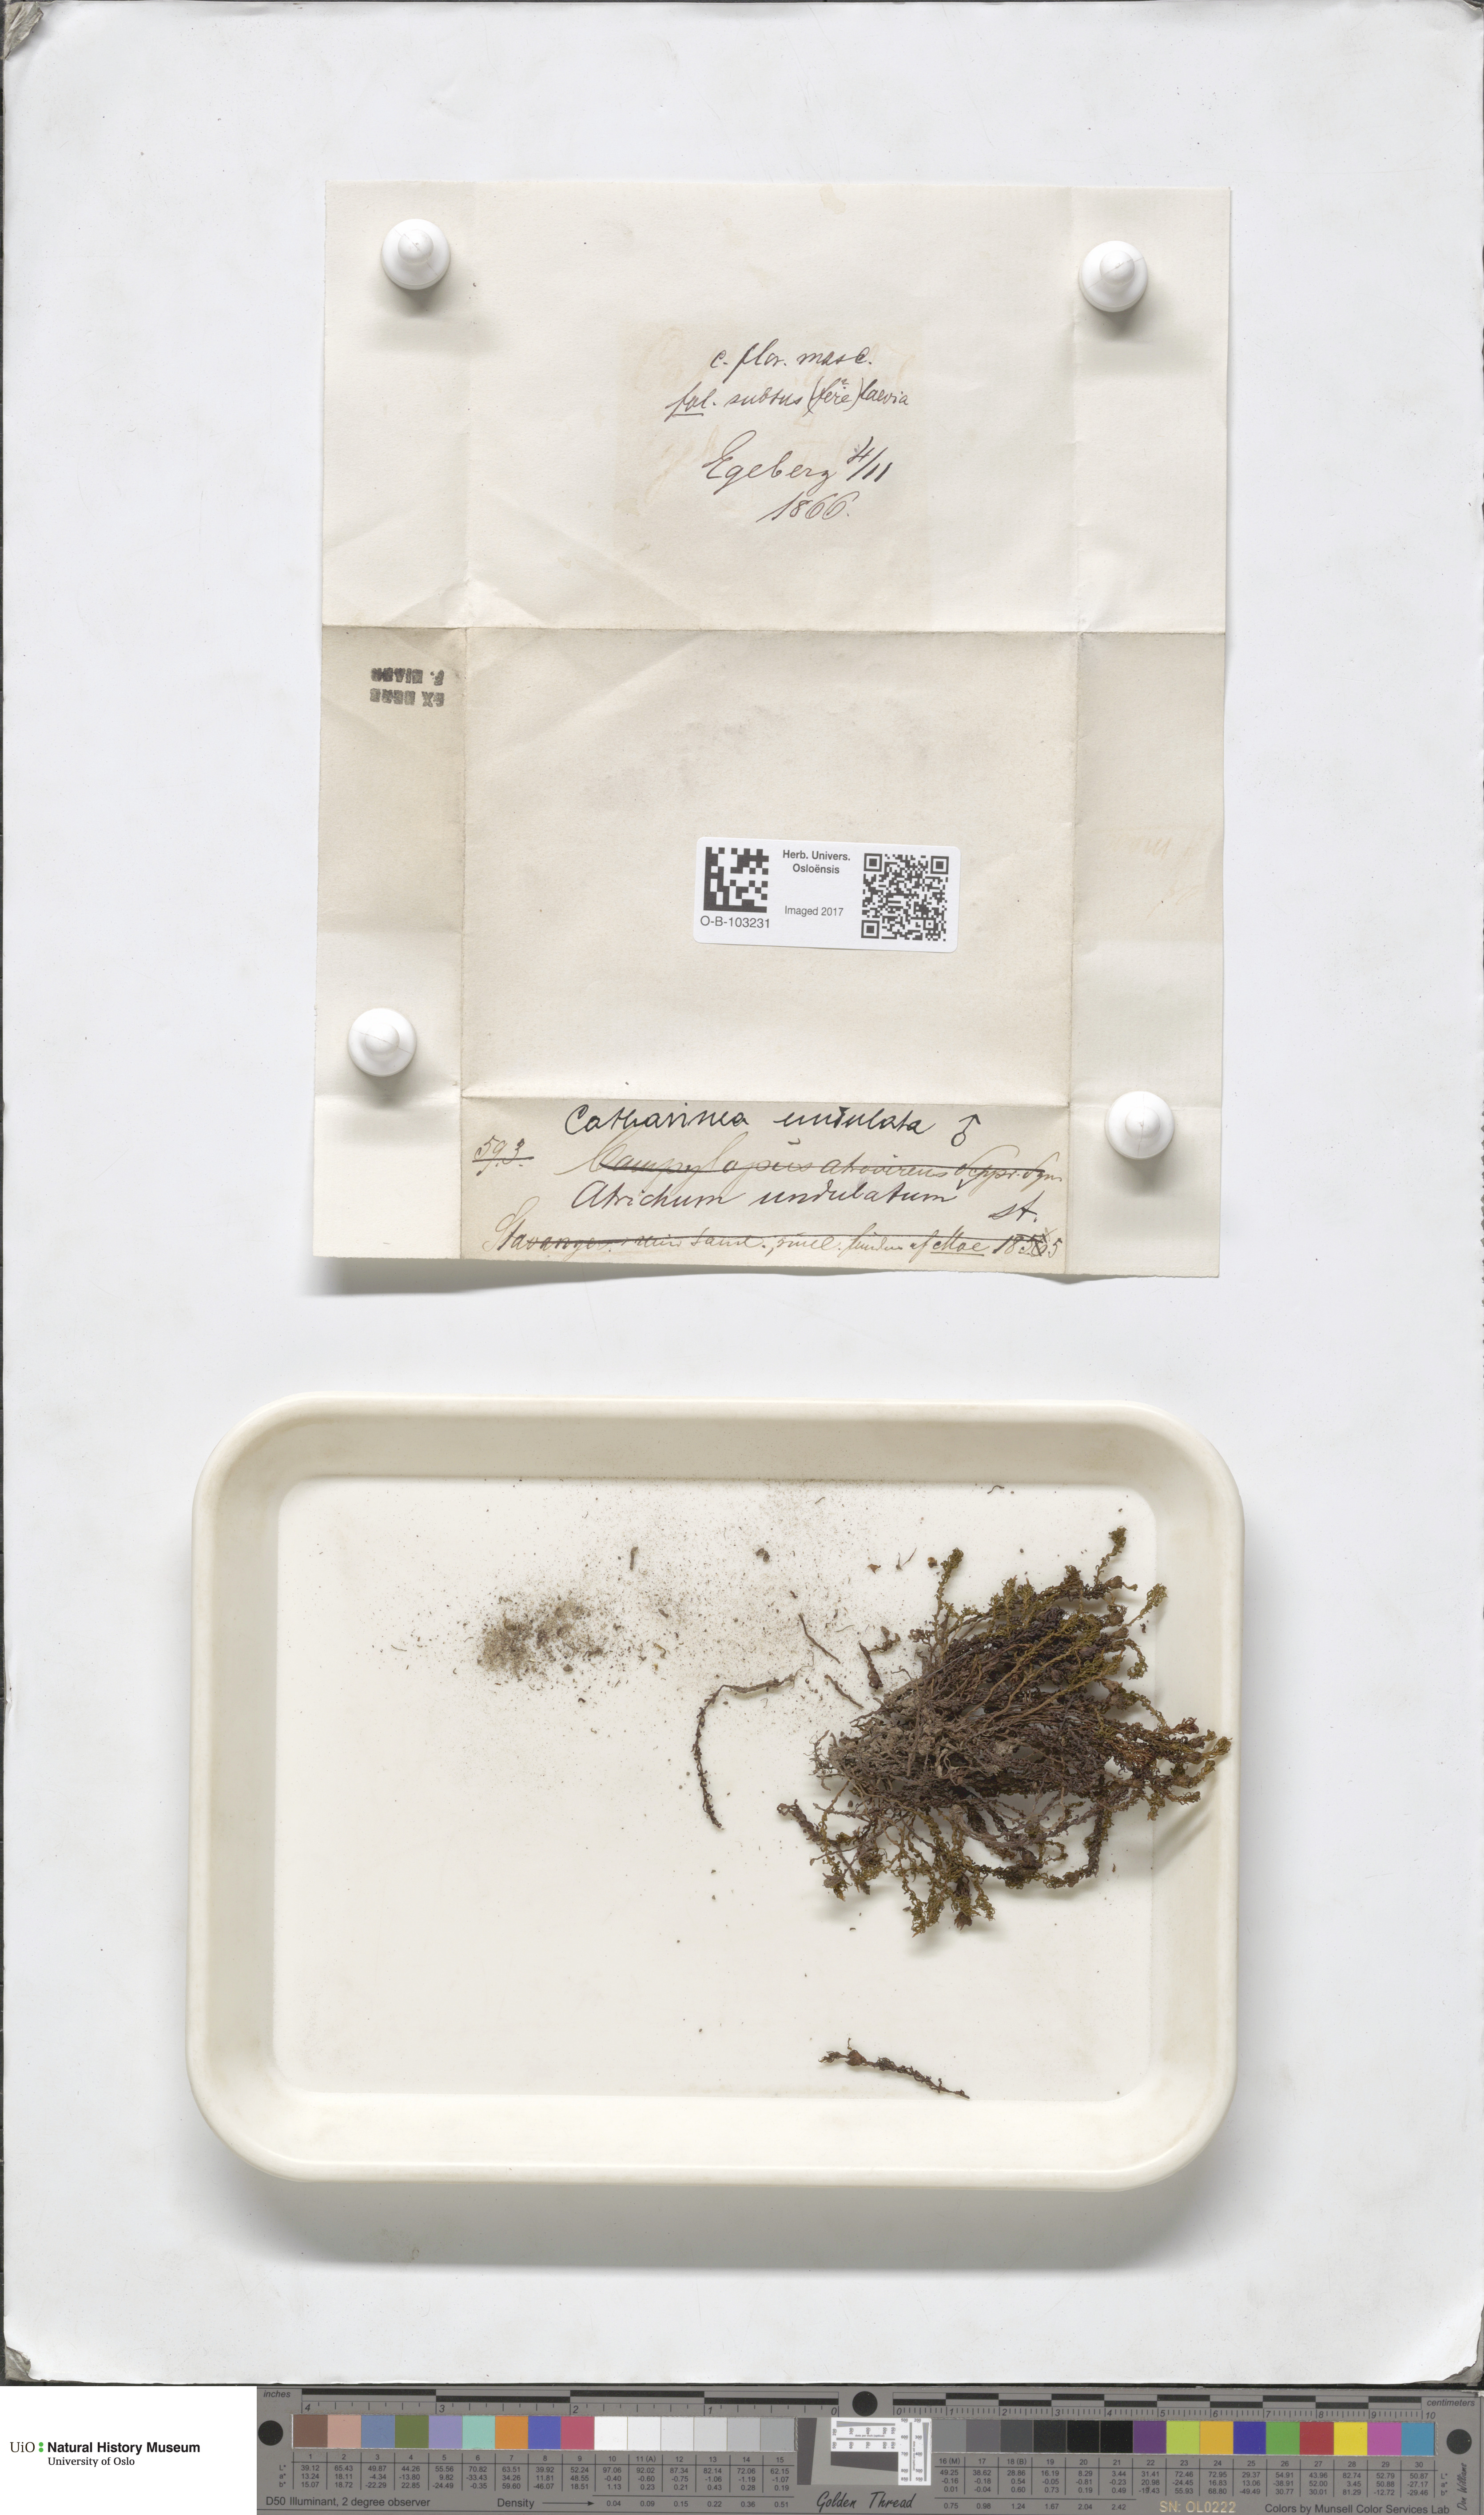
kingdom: Plantae
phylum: Bryophyta
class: Polytrichopsida
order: Polytrichales
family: Polytrichaceae
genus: Atrichum
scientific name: Atrichum undulatum
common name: Common smoothcap
